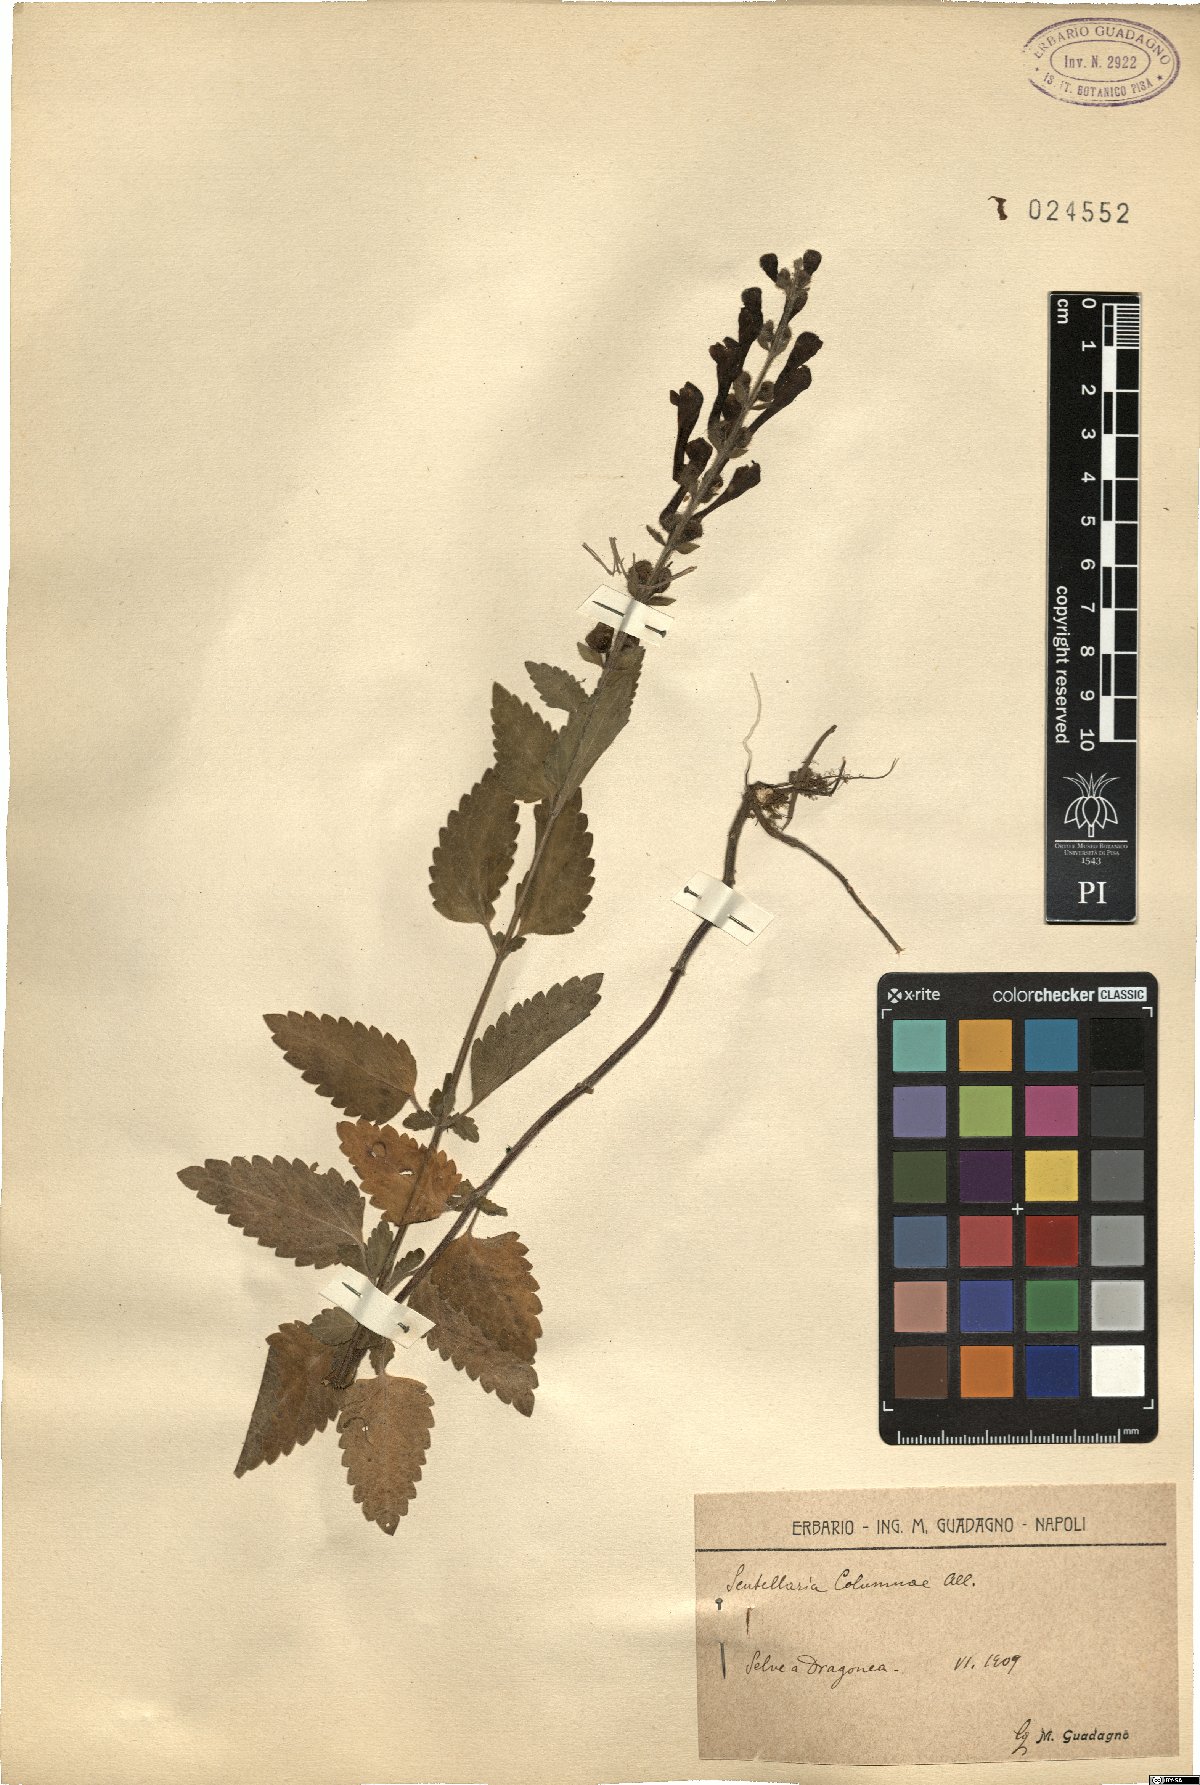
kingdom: Plantae
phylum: Tracheophyta
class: Magnoliopsida
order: Lamiales
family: Lamiaceae
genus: Scutellaria
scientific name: Scutellaria columnae
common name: Large skullcap
